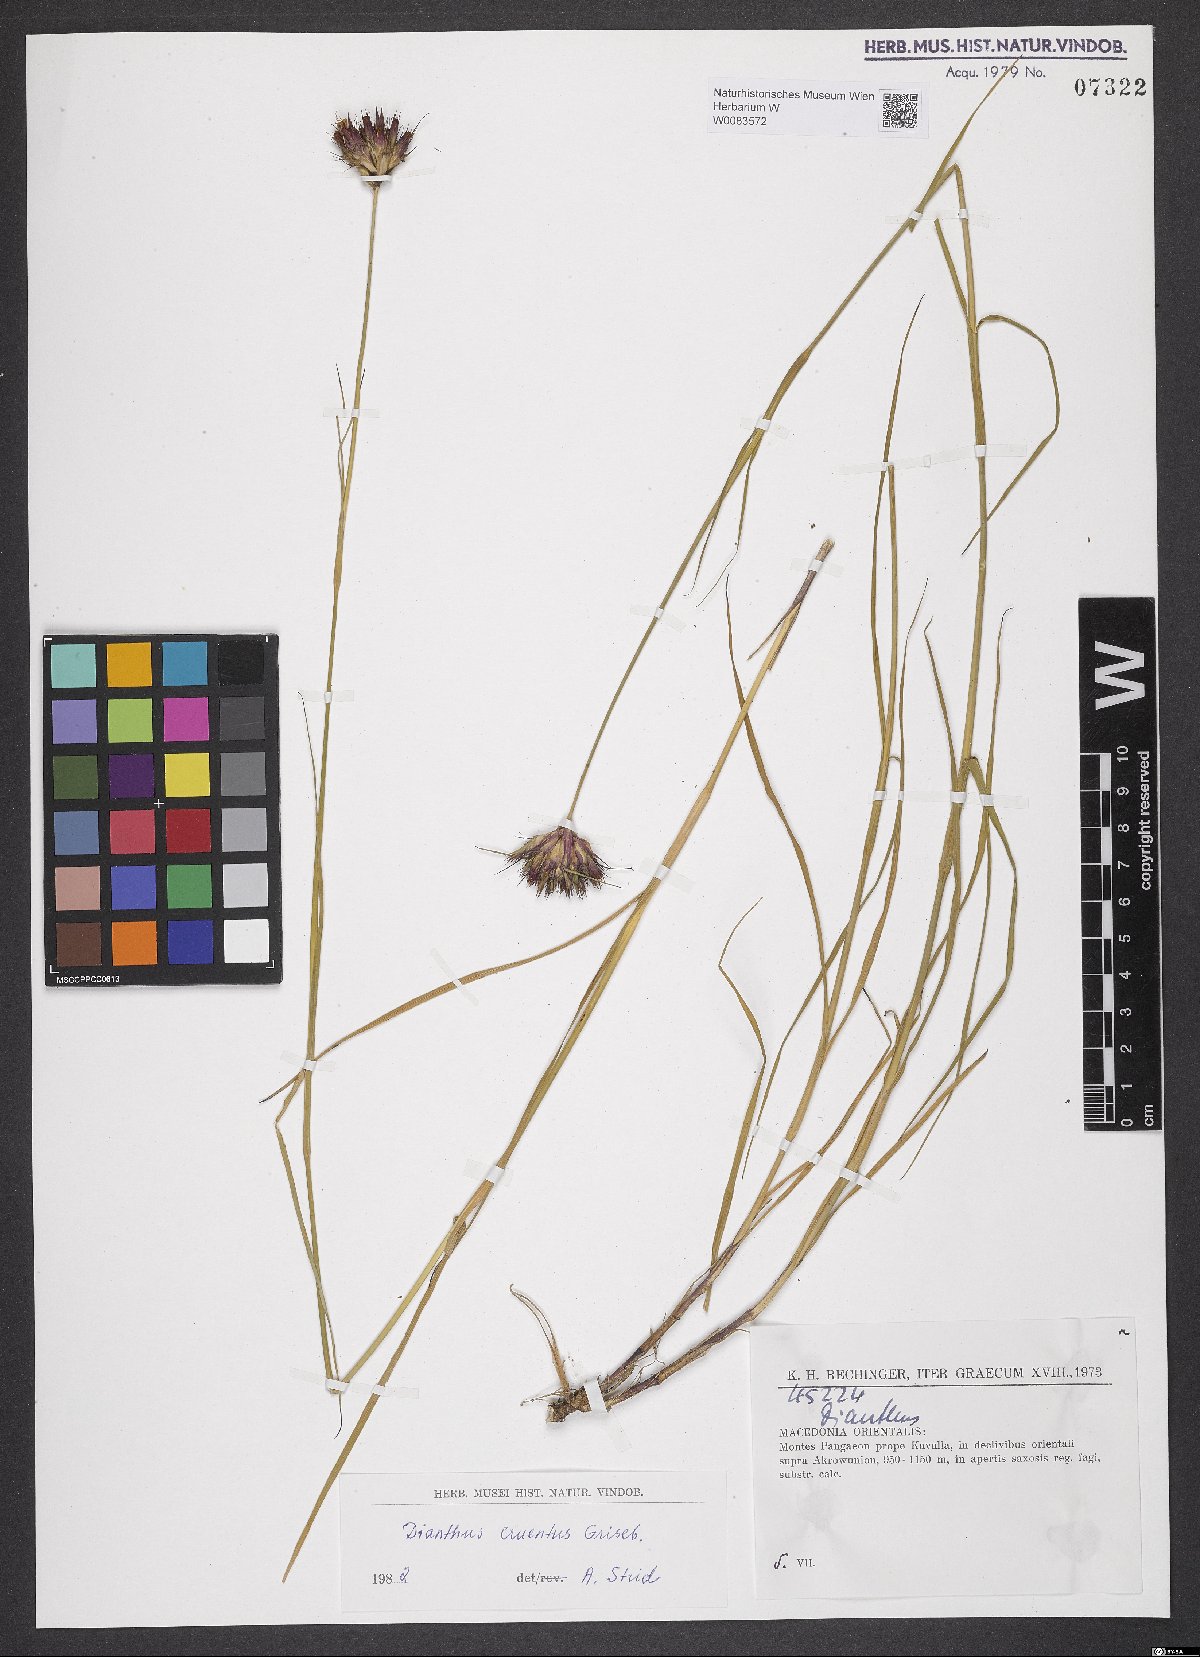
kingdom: Plantae
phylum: Tracheophyta
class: Magnoliopsida
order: Caryophyllales
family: Caryophyllaceae
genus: Dianthus
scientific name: Dianthus cruentus
